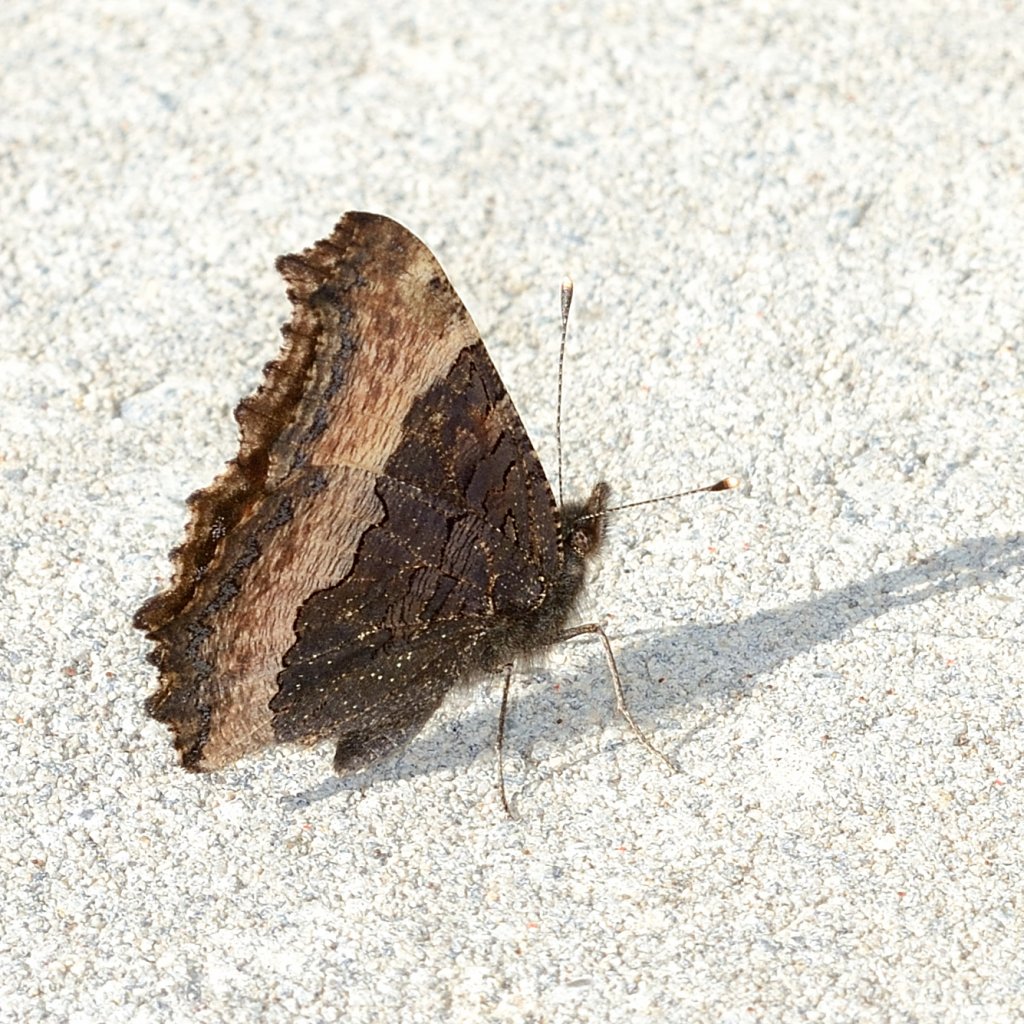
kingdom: Animalia
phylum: Arthropoda
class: Insecta
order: Lepidoptera
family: Nymphalidae
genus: Aglais
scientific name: Aglais milberti
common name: Milbert's Tortoiseshell
